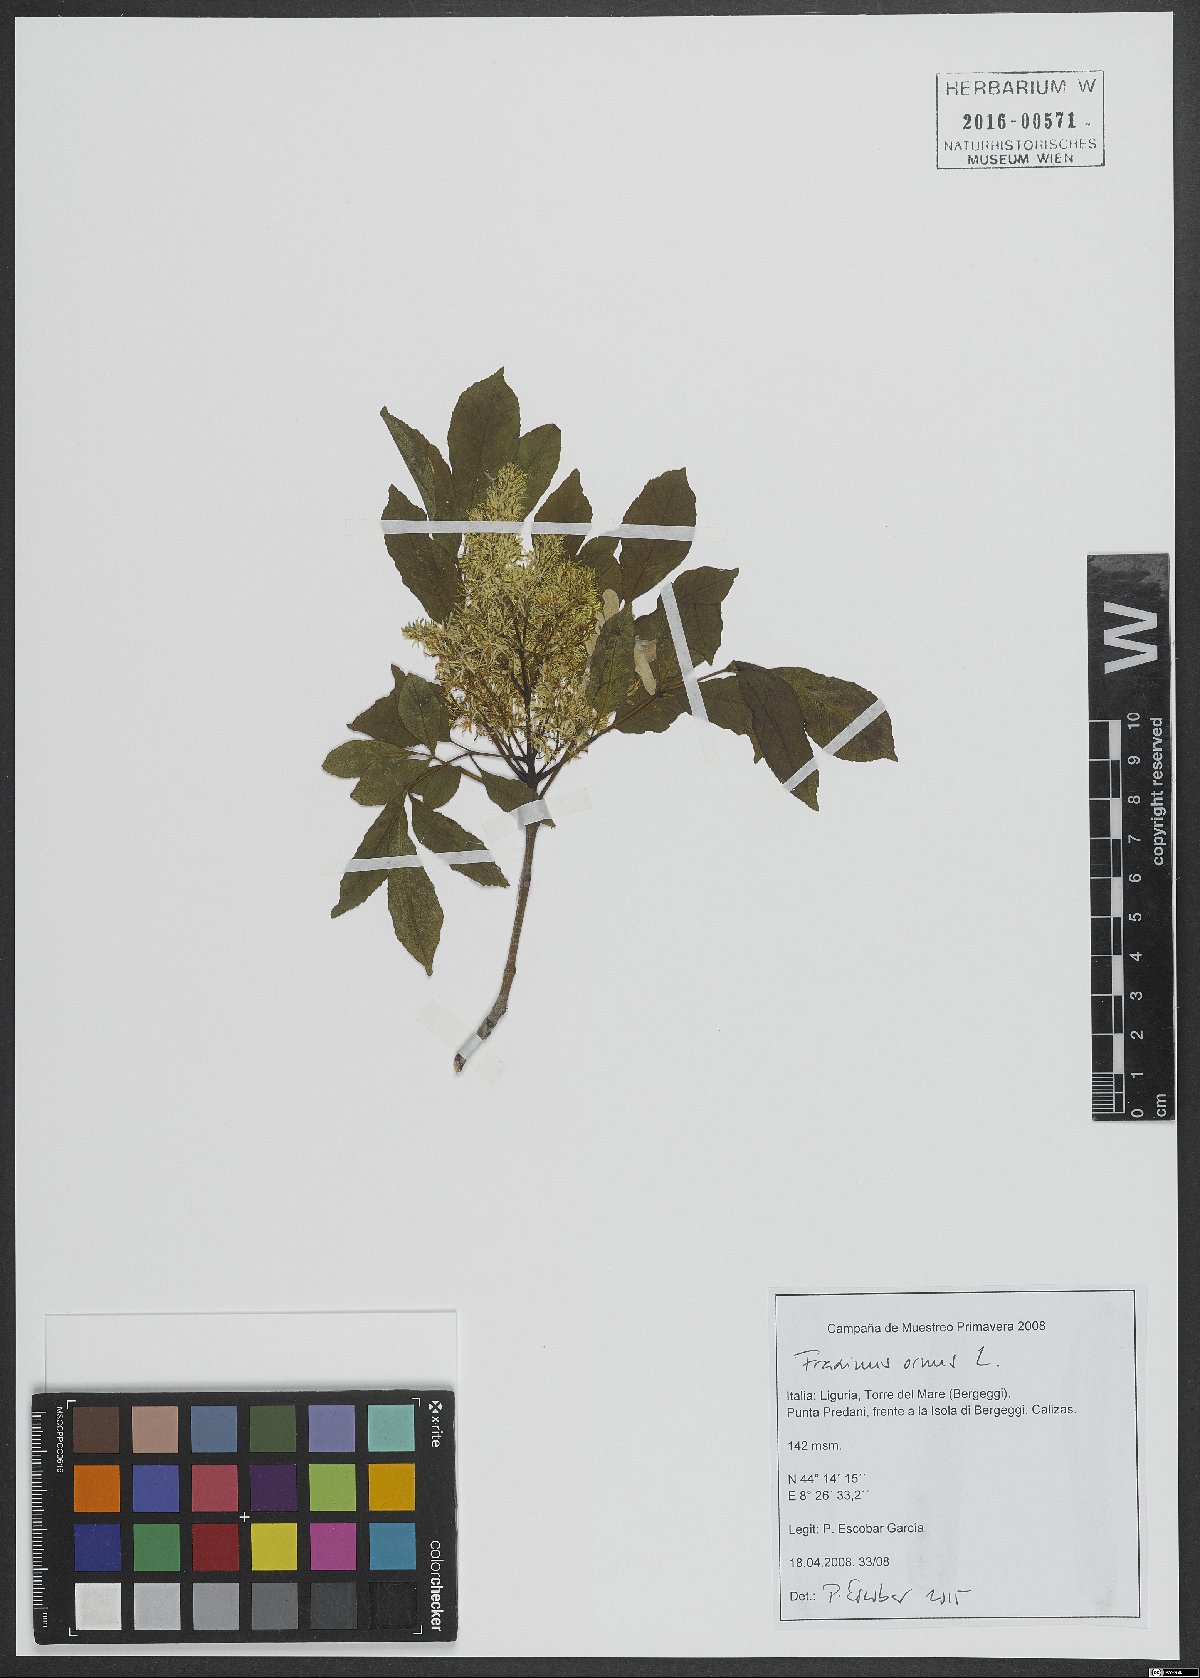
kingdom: Plantae
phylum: Tracheophyta
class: Magnoliopsida
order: Lamiales
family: Oleaceae
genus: Fraxinus
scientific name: Fraxinus ornus
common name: Manna ash
